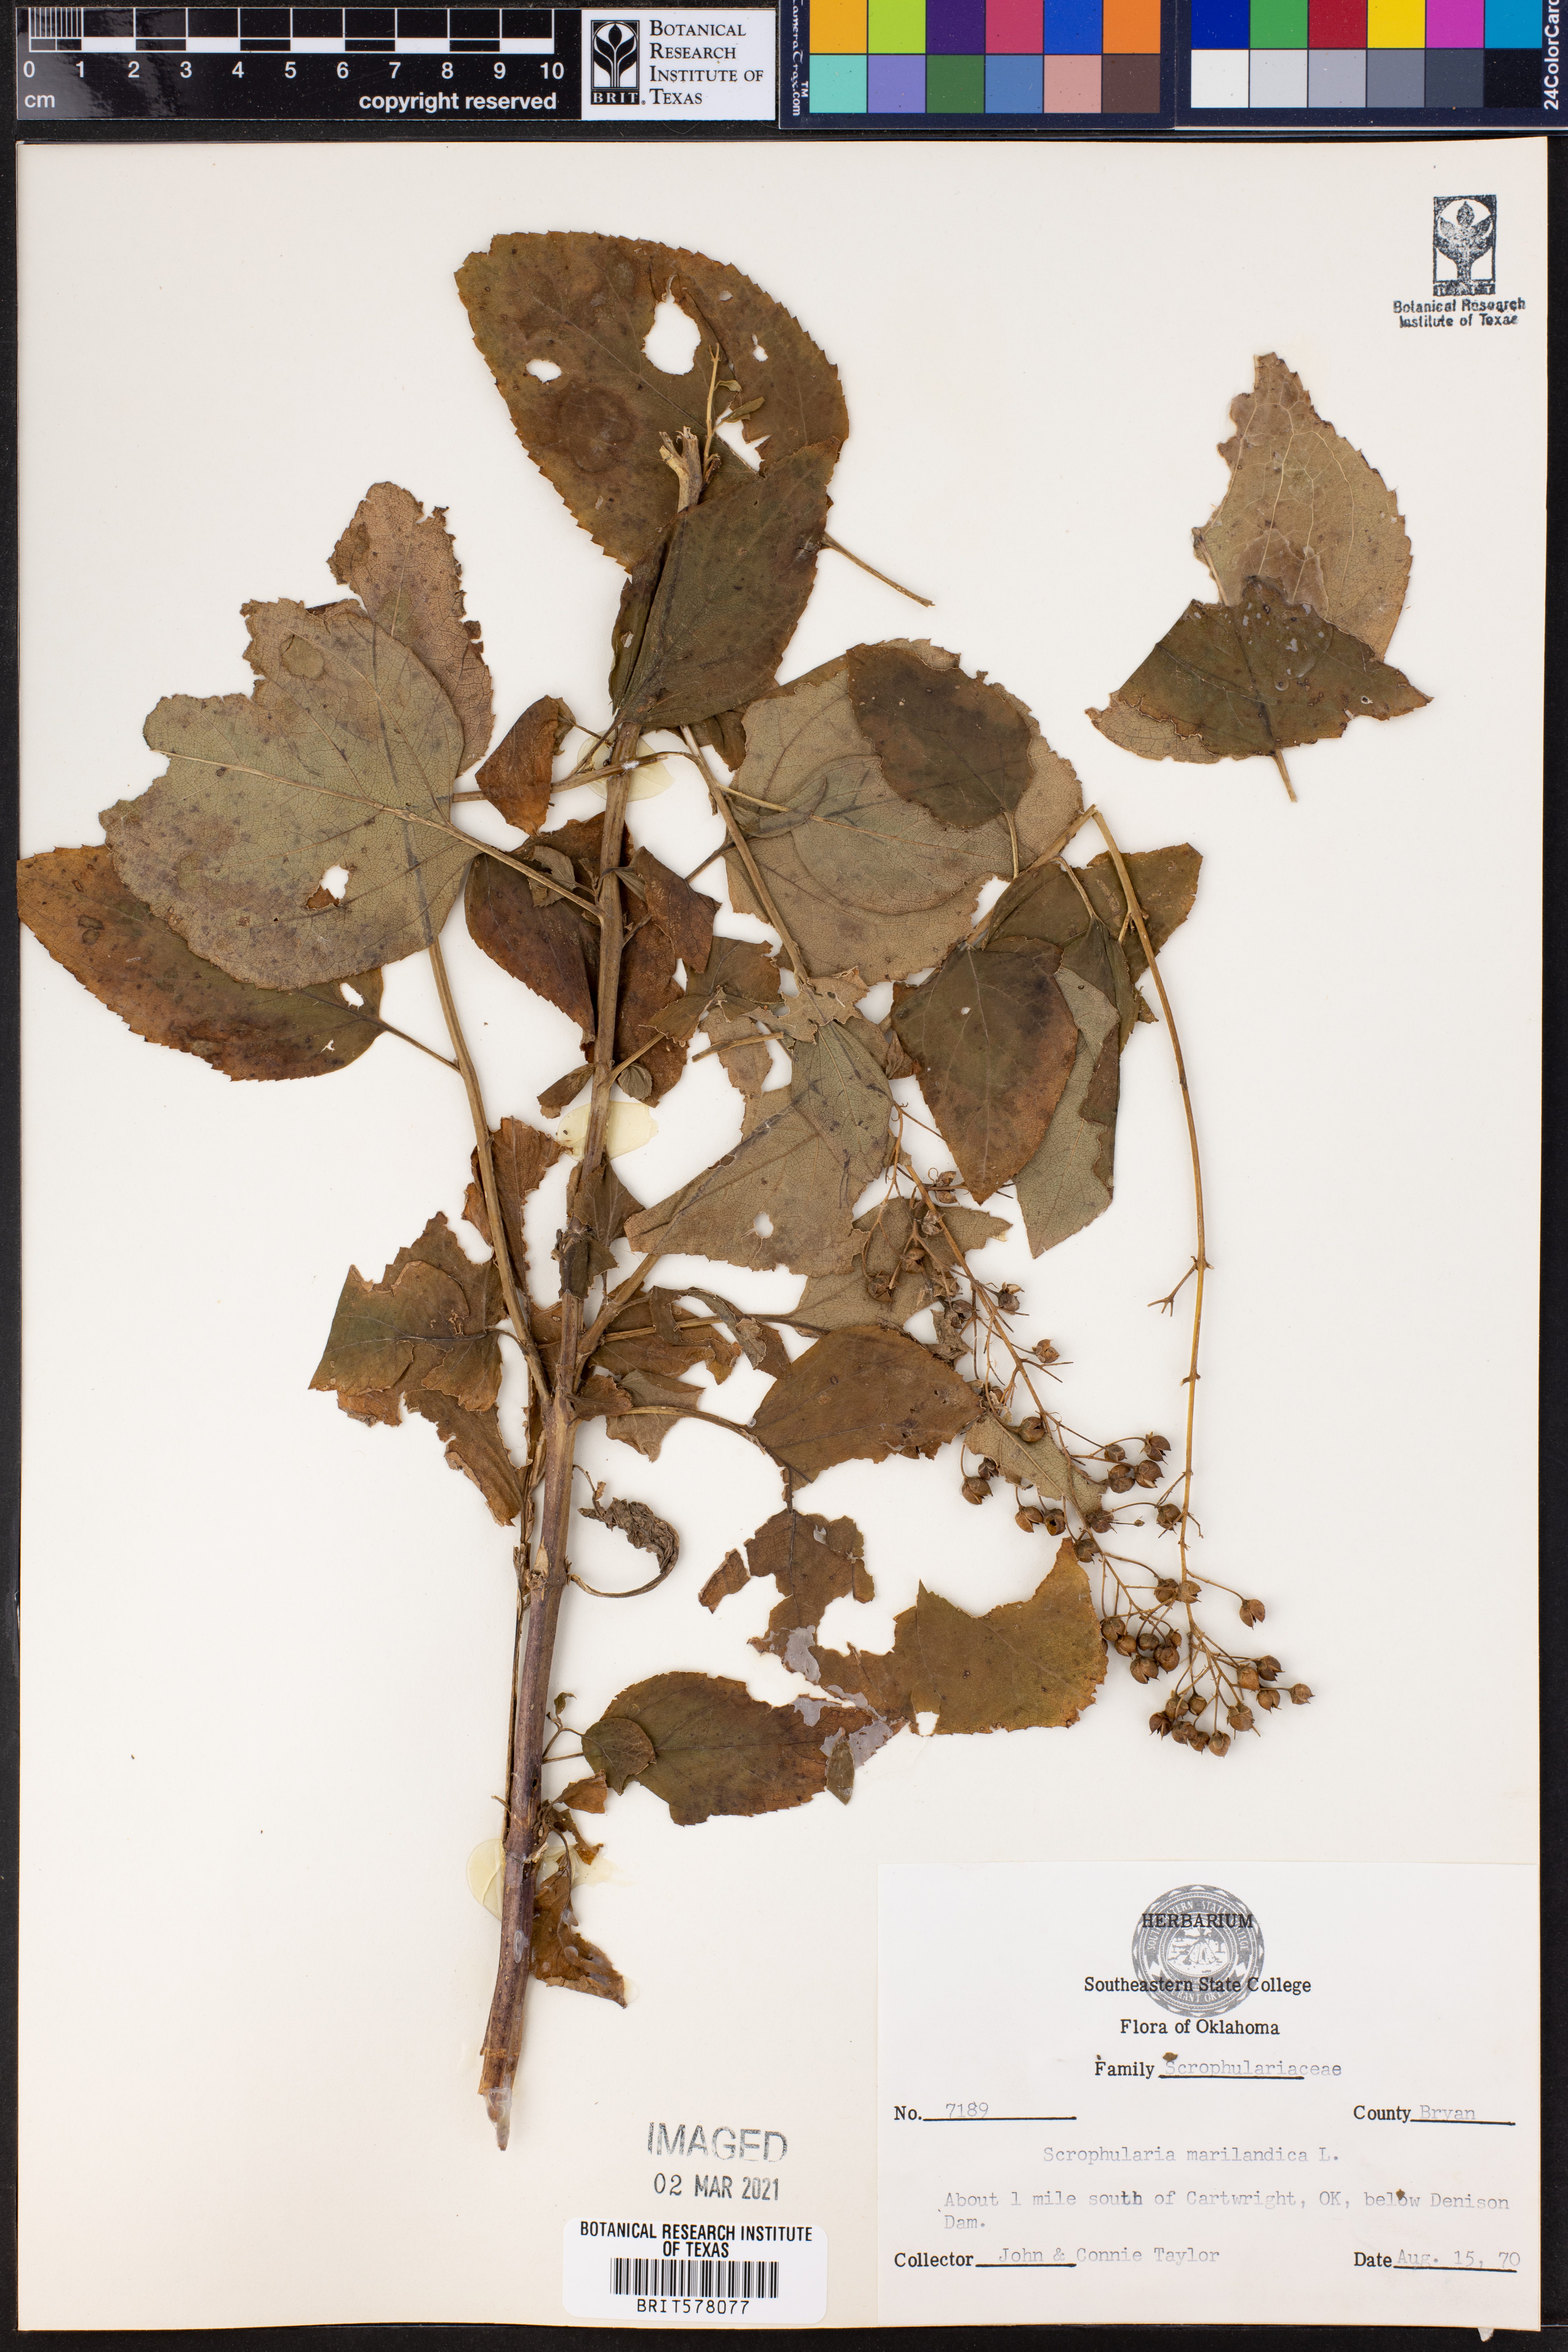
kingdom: Plantae
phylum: Tracheophyta
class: Magnoliopsida
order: Lamiales
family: Scrophulariaceae
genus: Scrophularia
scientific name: Scrophularia marilandica
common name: Eastern figwort
